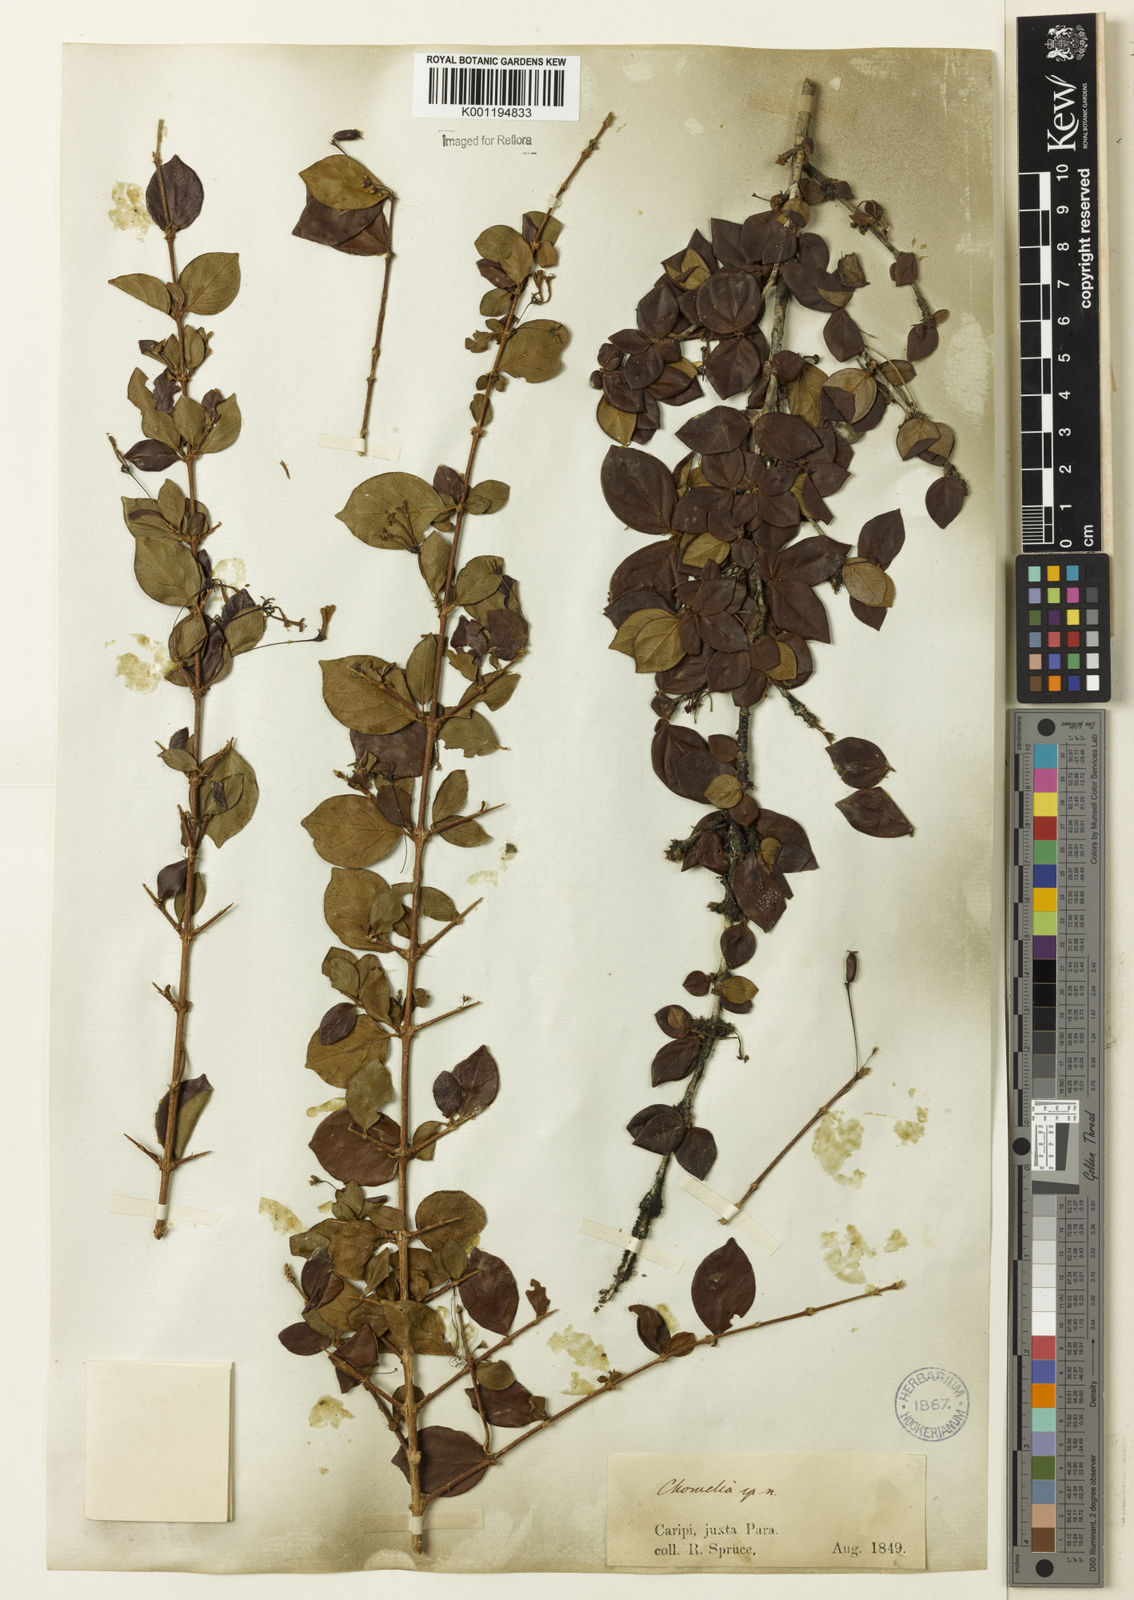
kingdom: Plantae
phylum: Tracheophyta
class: Magnoliopsida
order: Gentianales
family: Rubiaceae
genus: Chomelia
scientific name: Chomelia obtusa
